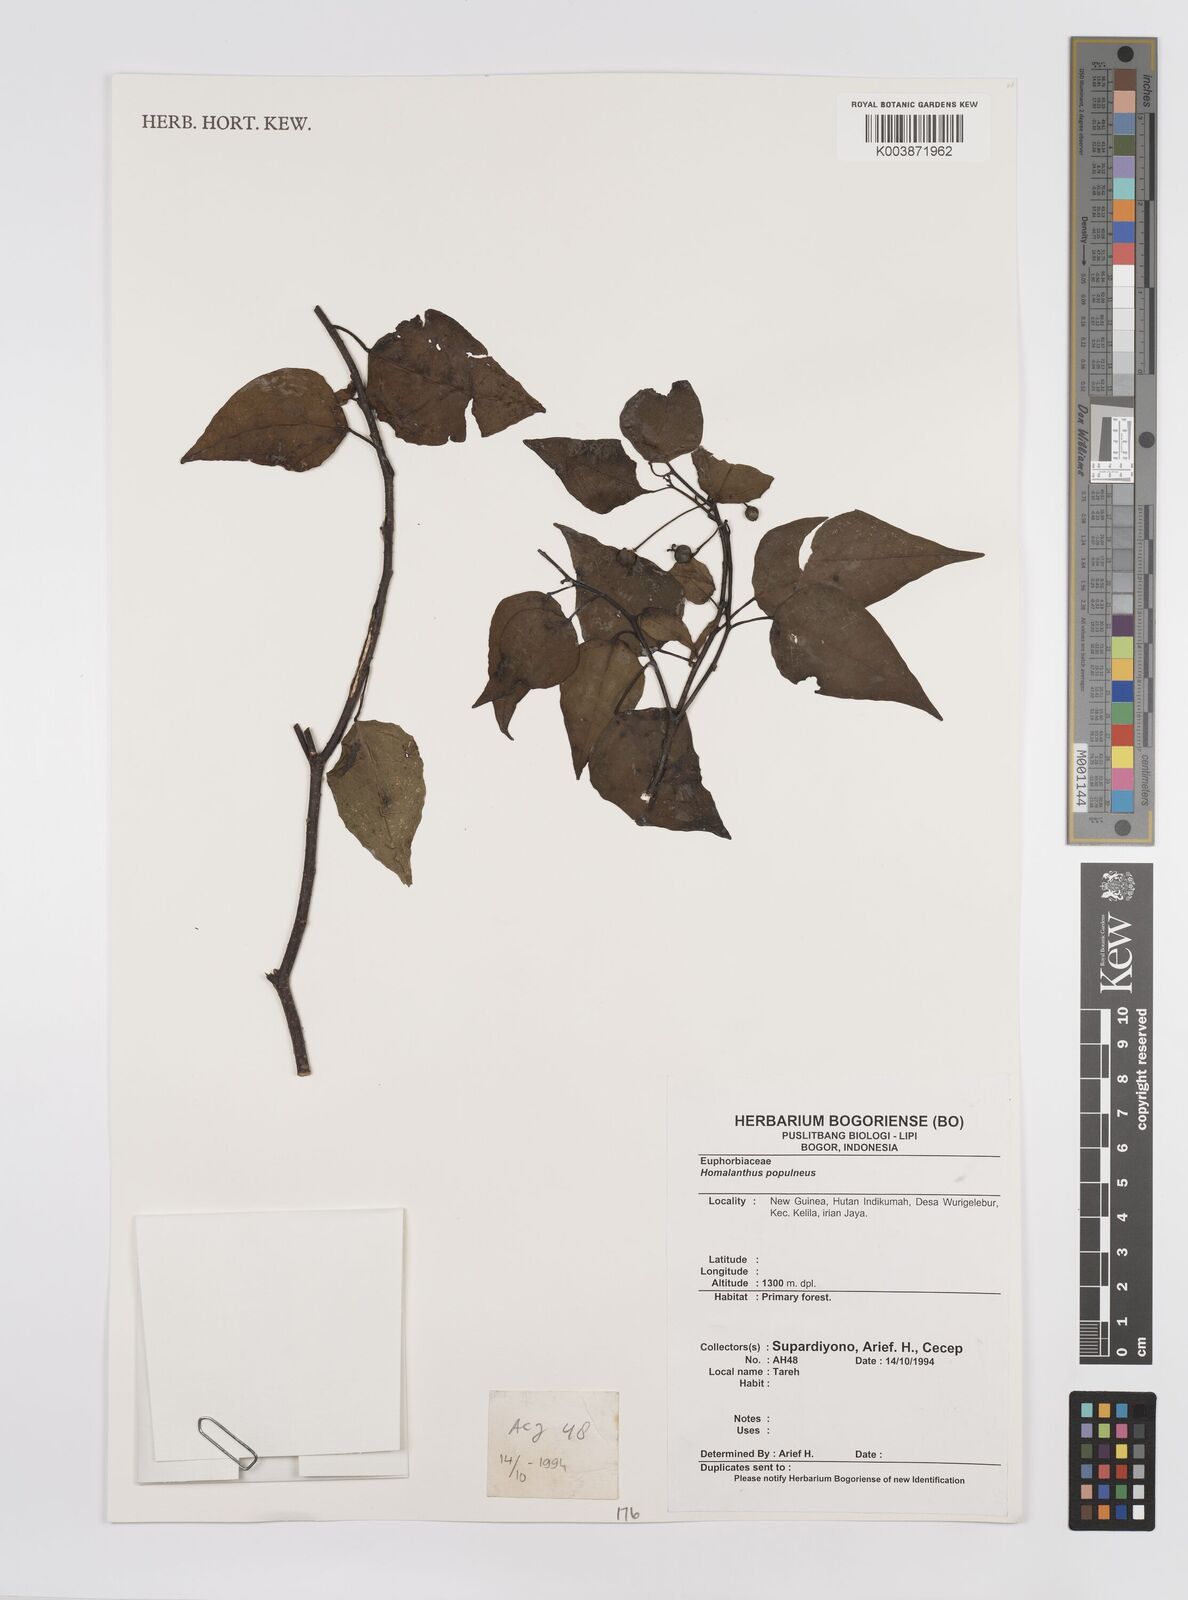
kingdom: Plantae
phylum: Tracheophyta
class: Magnoliopsida
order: Malpighiales
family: Euphorbiaceae
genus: Homalanthus
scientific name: Homalanthus populneus
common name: Spurge
